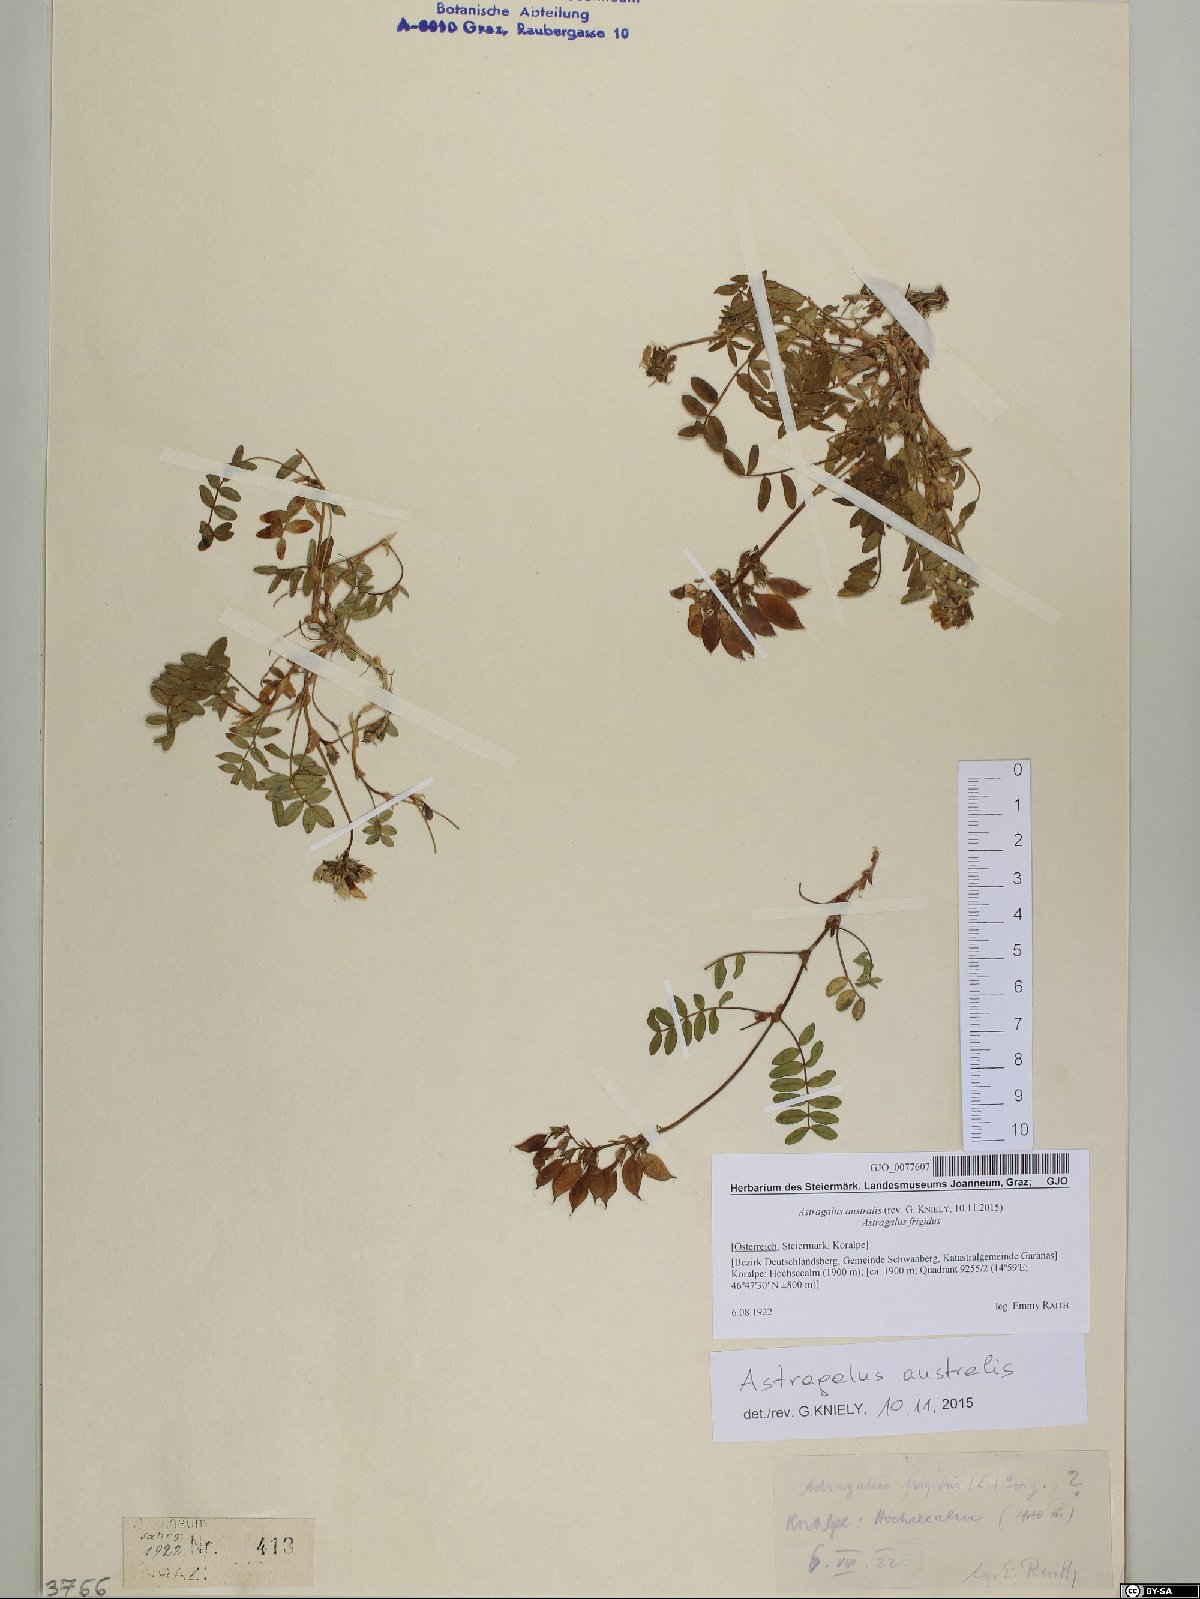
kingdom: Plantae
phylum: Tracheophyta
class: Magnoliopsida
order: Fabales
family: Fabaceae
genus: Astragalus
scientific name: Astragalus australis
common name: Indian milk-vetch
